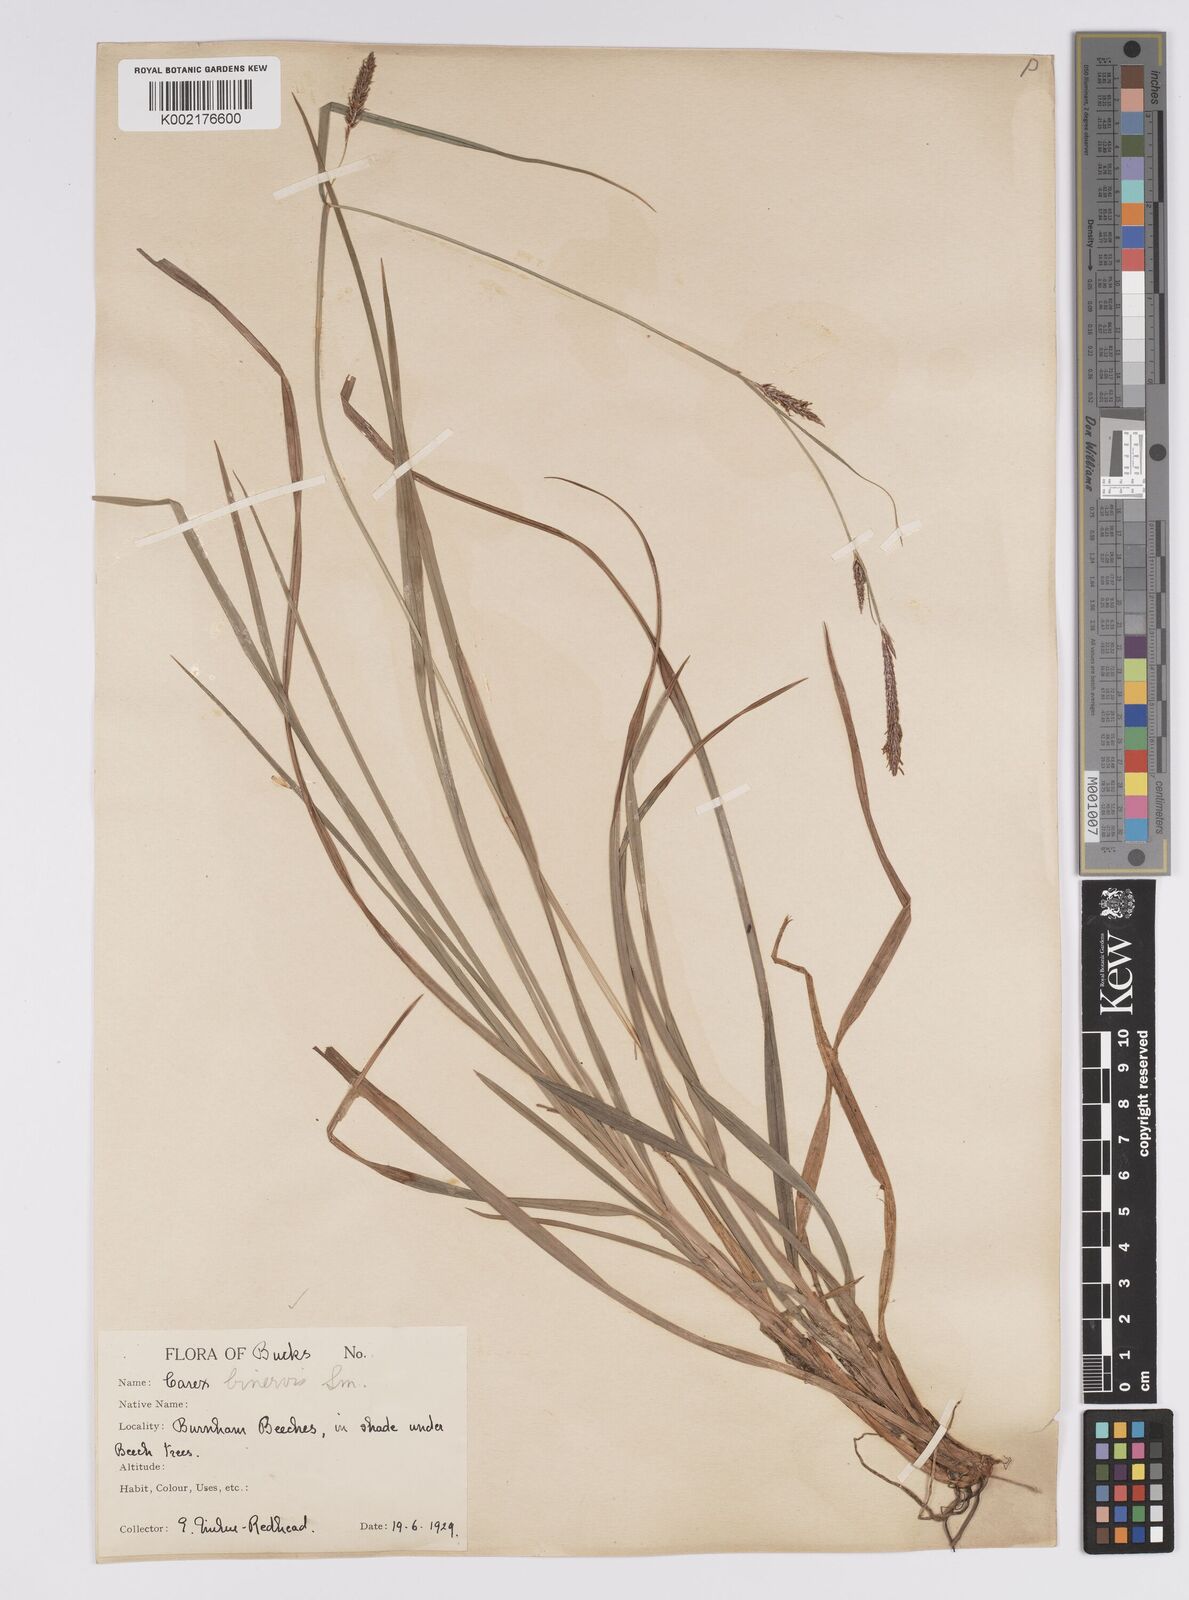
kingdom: Plantae
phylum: Tracheophyta
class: Liliopsida
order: Poales
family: Cyperaceae
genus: Carex
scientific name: Carex binervis
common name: Green-ribbed sedge
